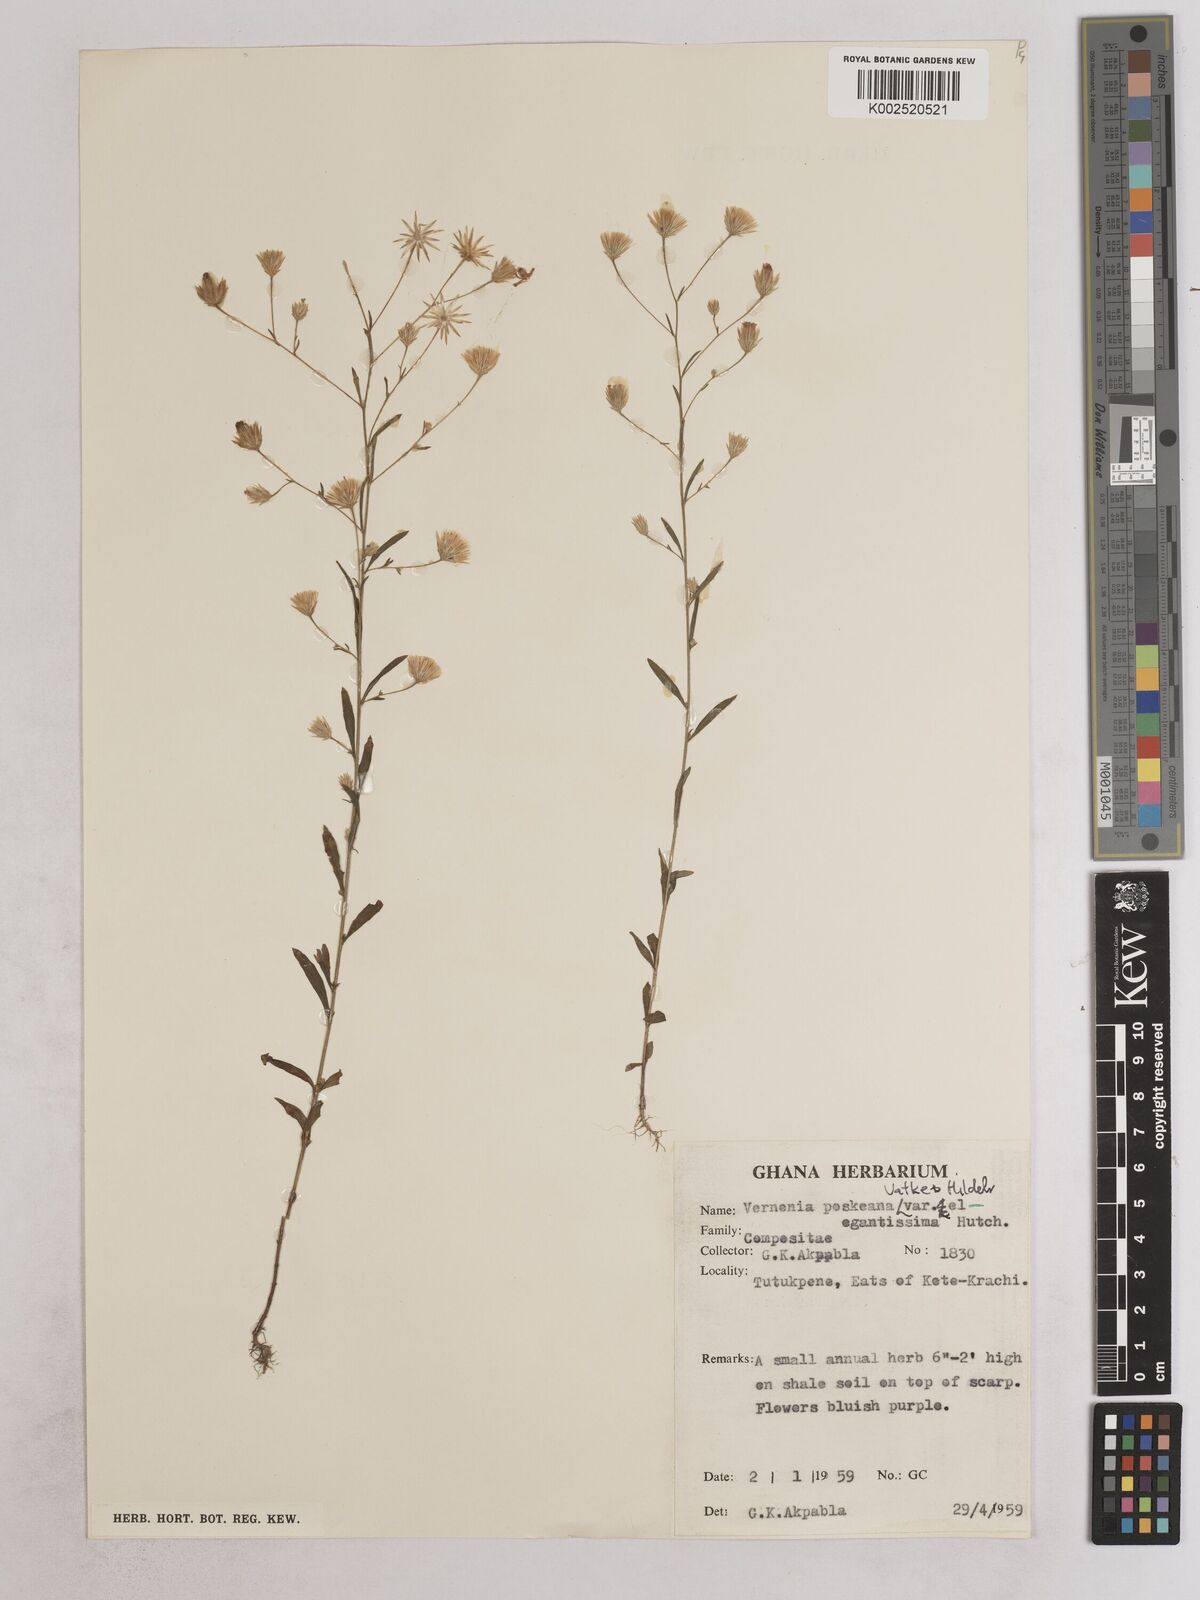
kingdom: Plantae
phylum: Tracheophyta
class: Magnoliopsida
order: Asterales
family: Asteraceae
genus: Crystallopollen
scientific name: Crystallopollen angustifolium
